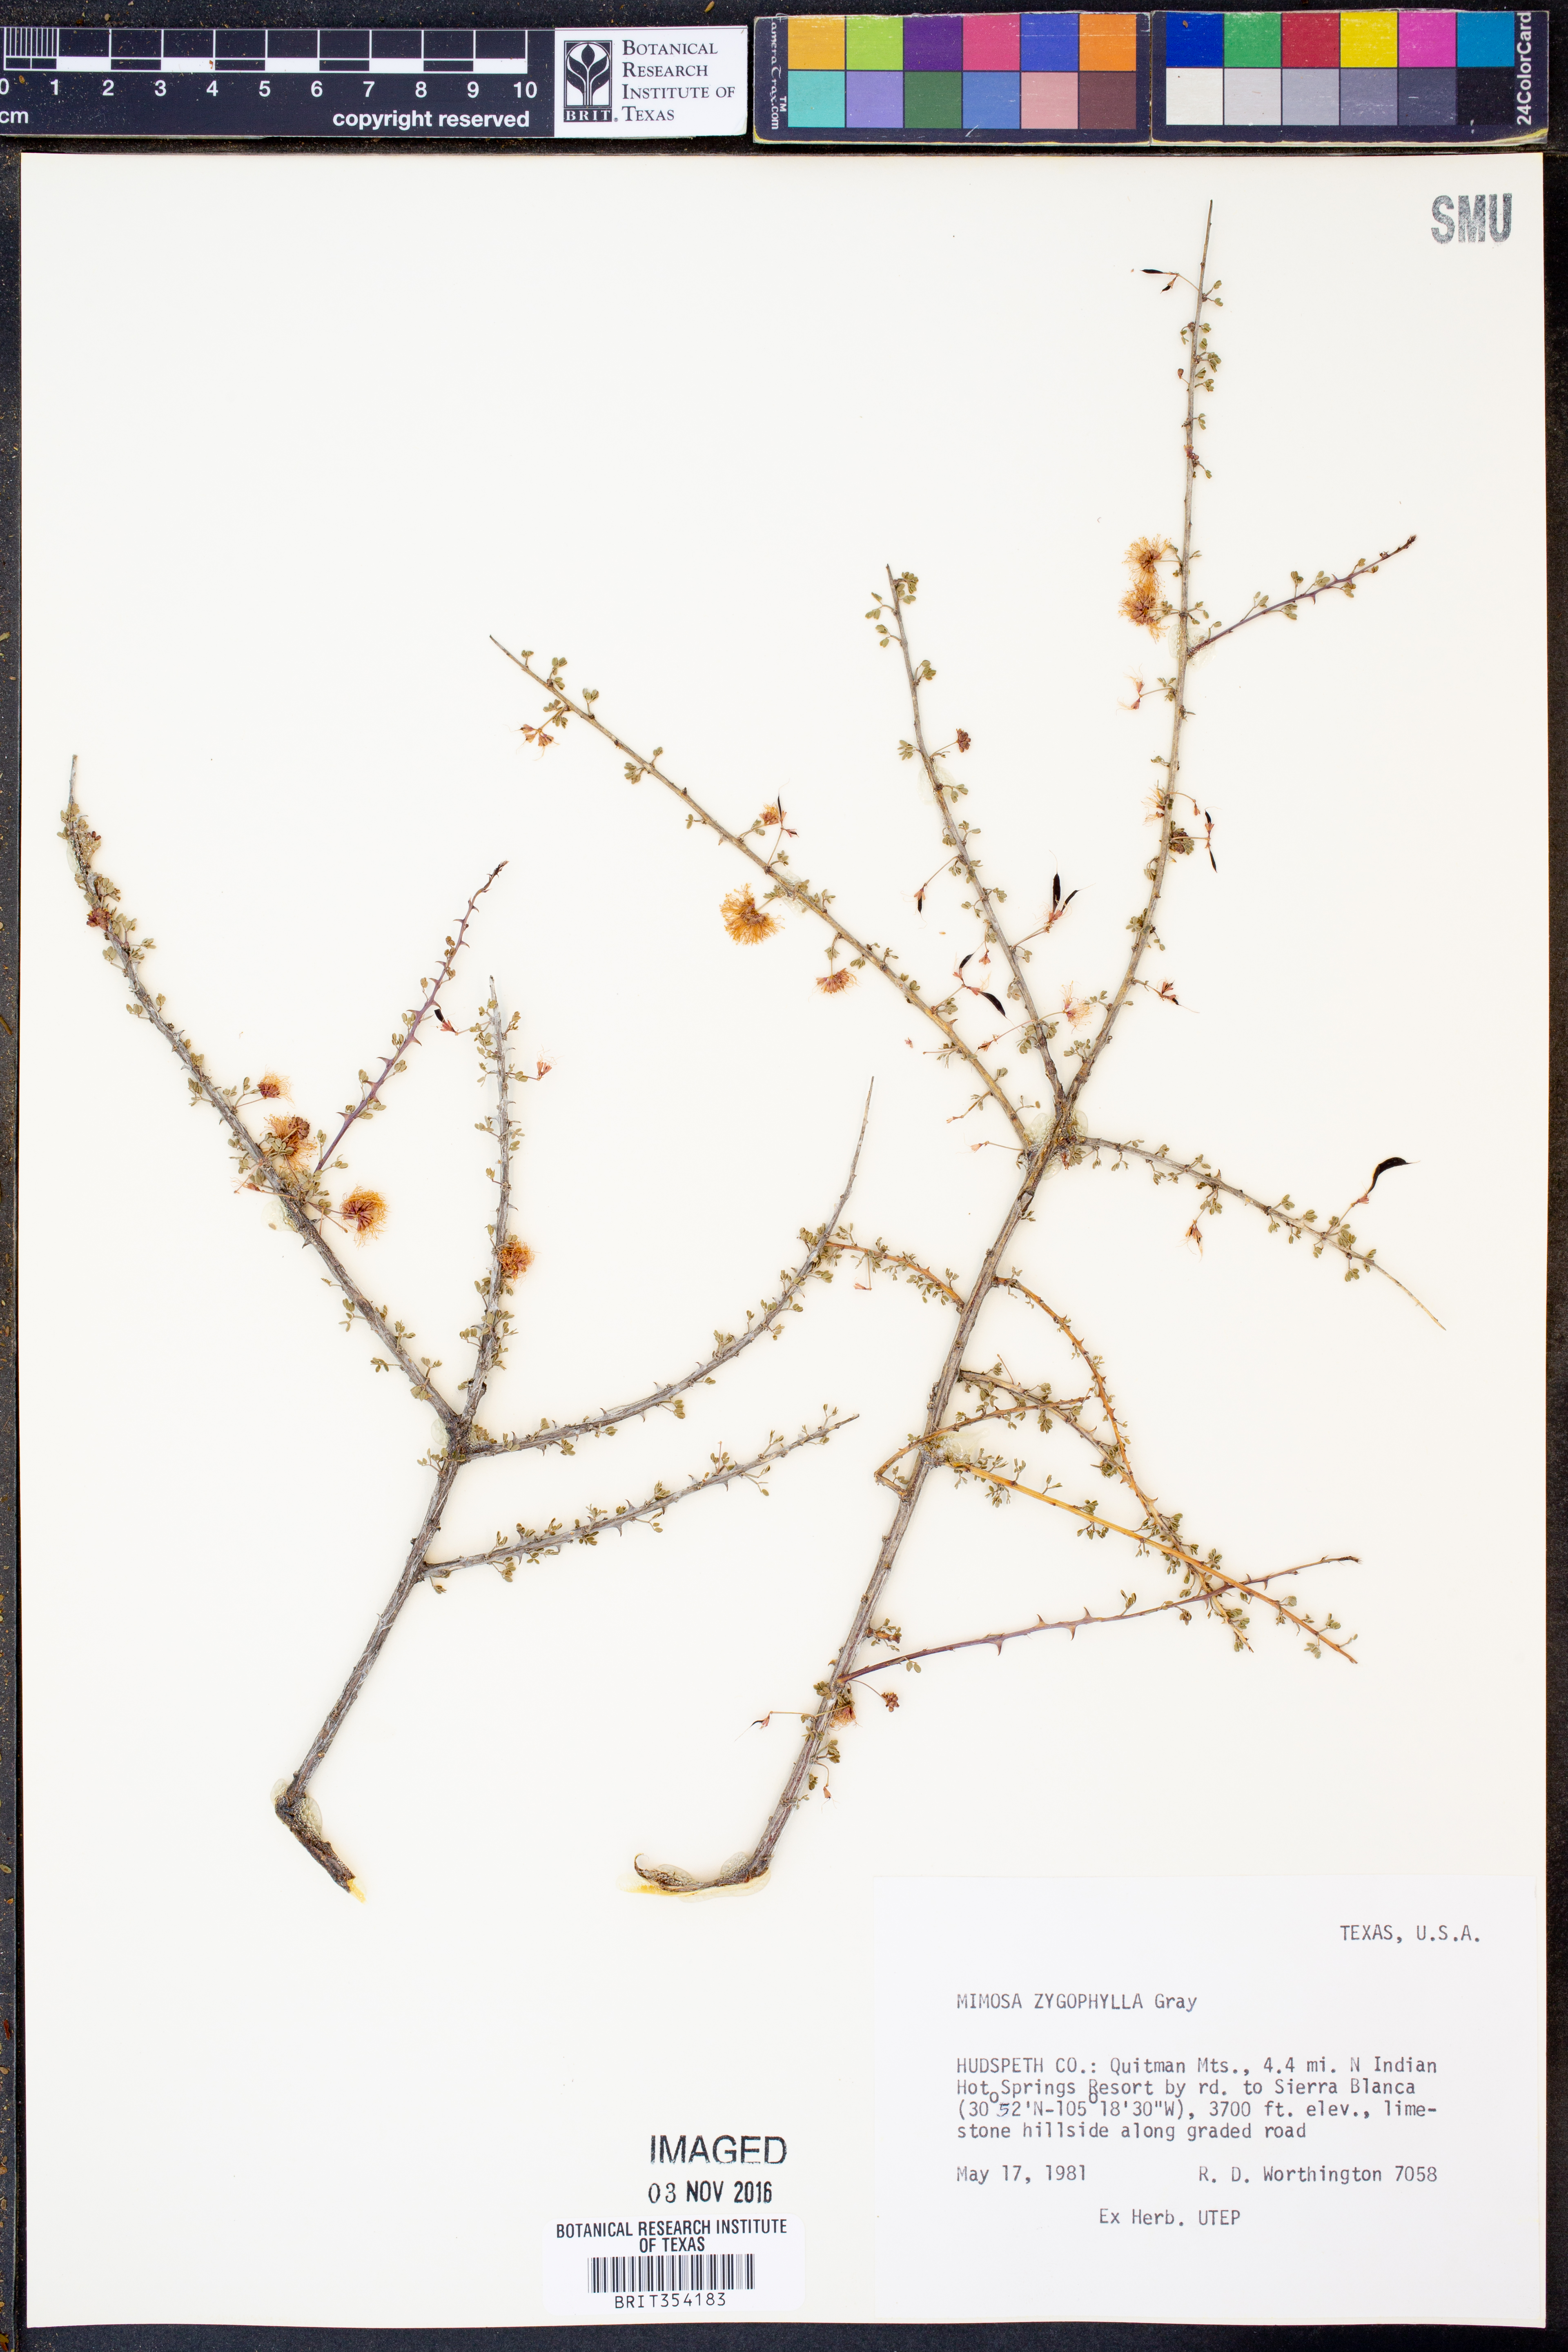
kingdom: Plantae
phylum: Tracheophyta
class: Magnoliopsida
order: Fabales
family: Fabaceae
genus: Mimosa
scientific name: Mimosa zygophylla
